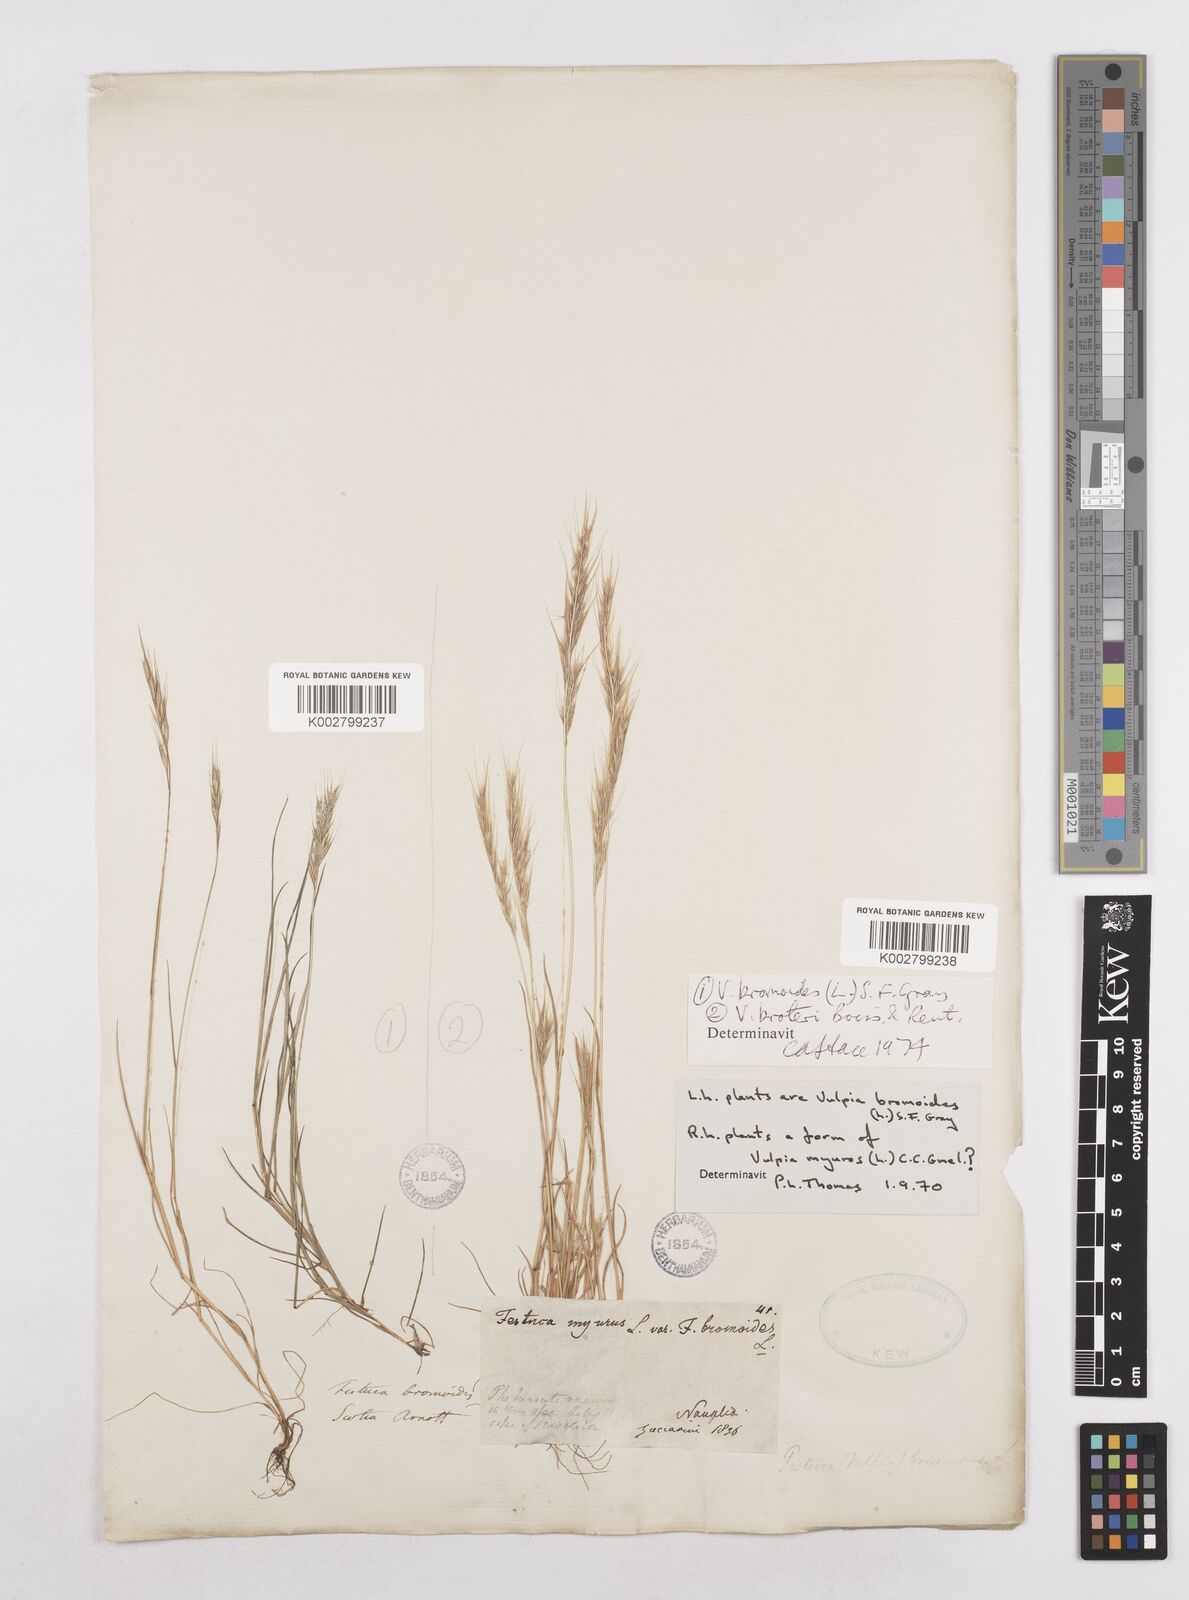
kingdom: Plantae
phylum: Tracheophyta
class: Liliopsida
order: Poales
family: Poaceae
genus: Festuca
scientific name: Festuca bromoides
